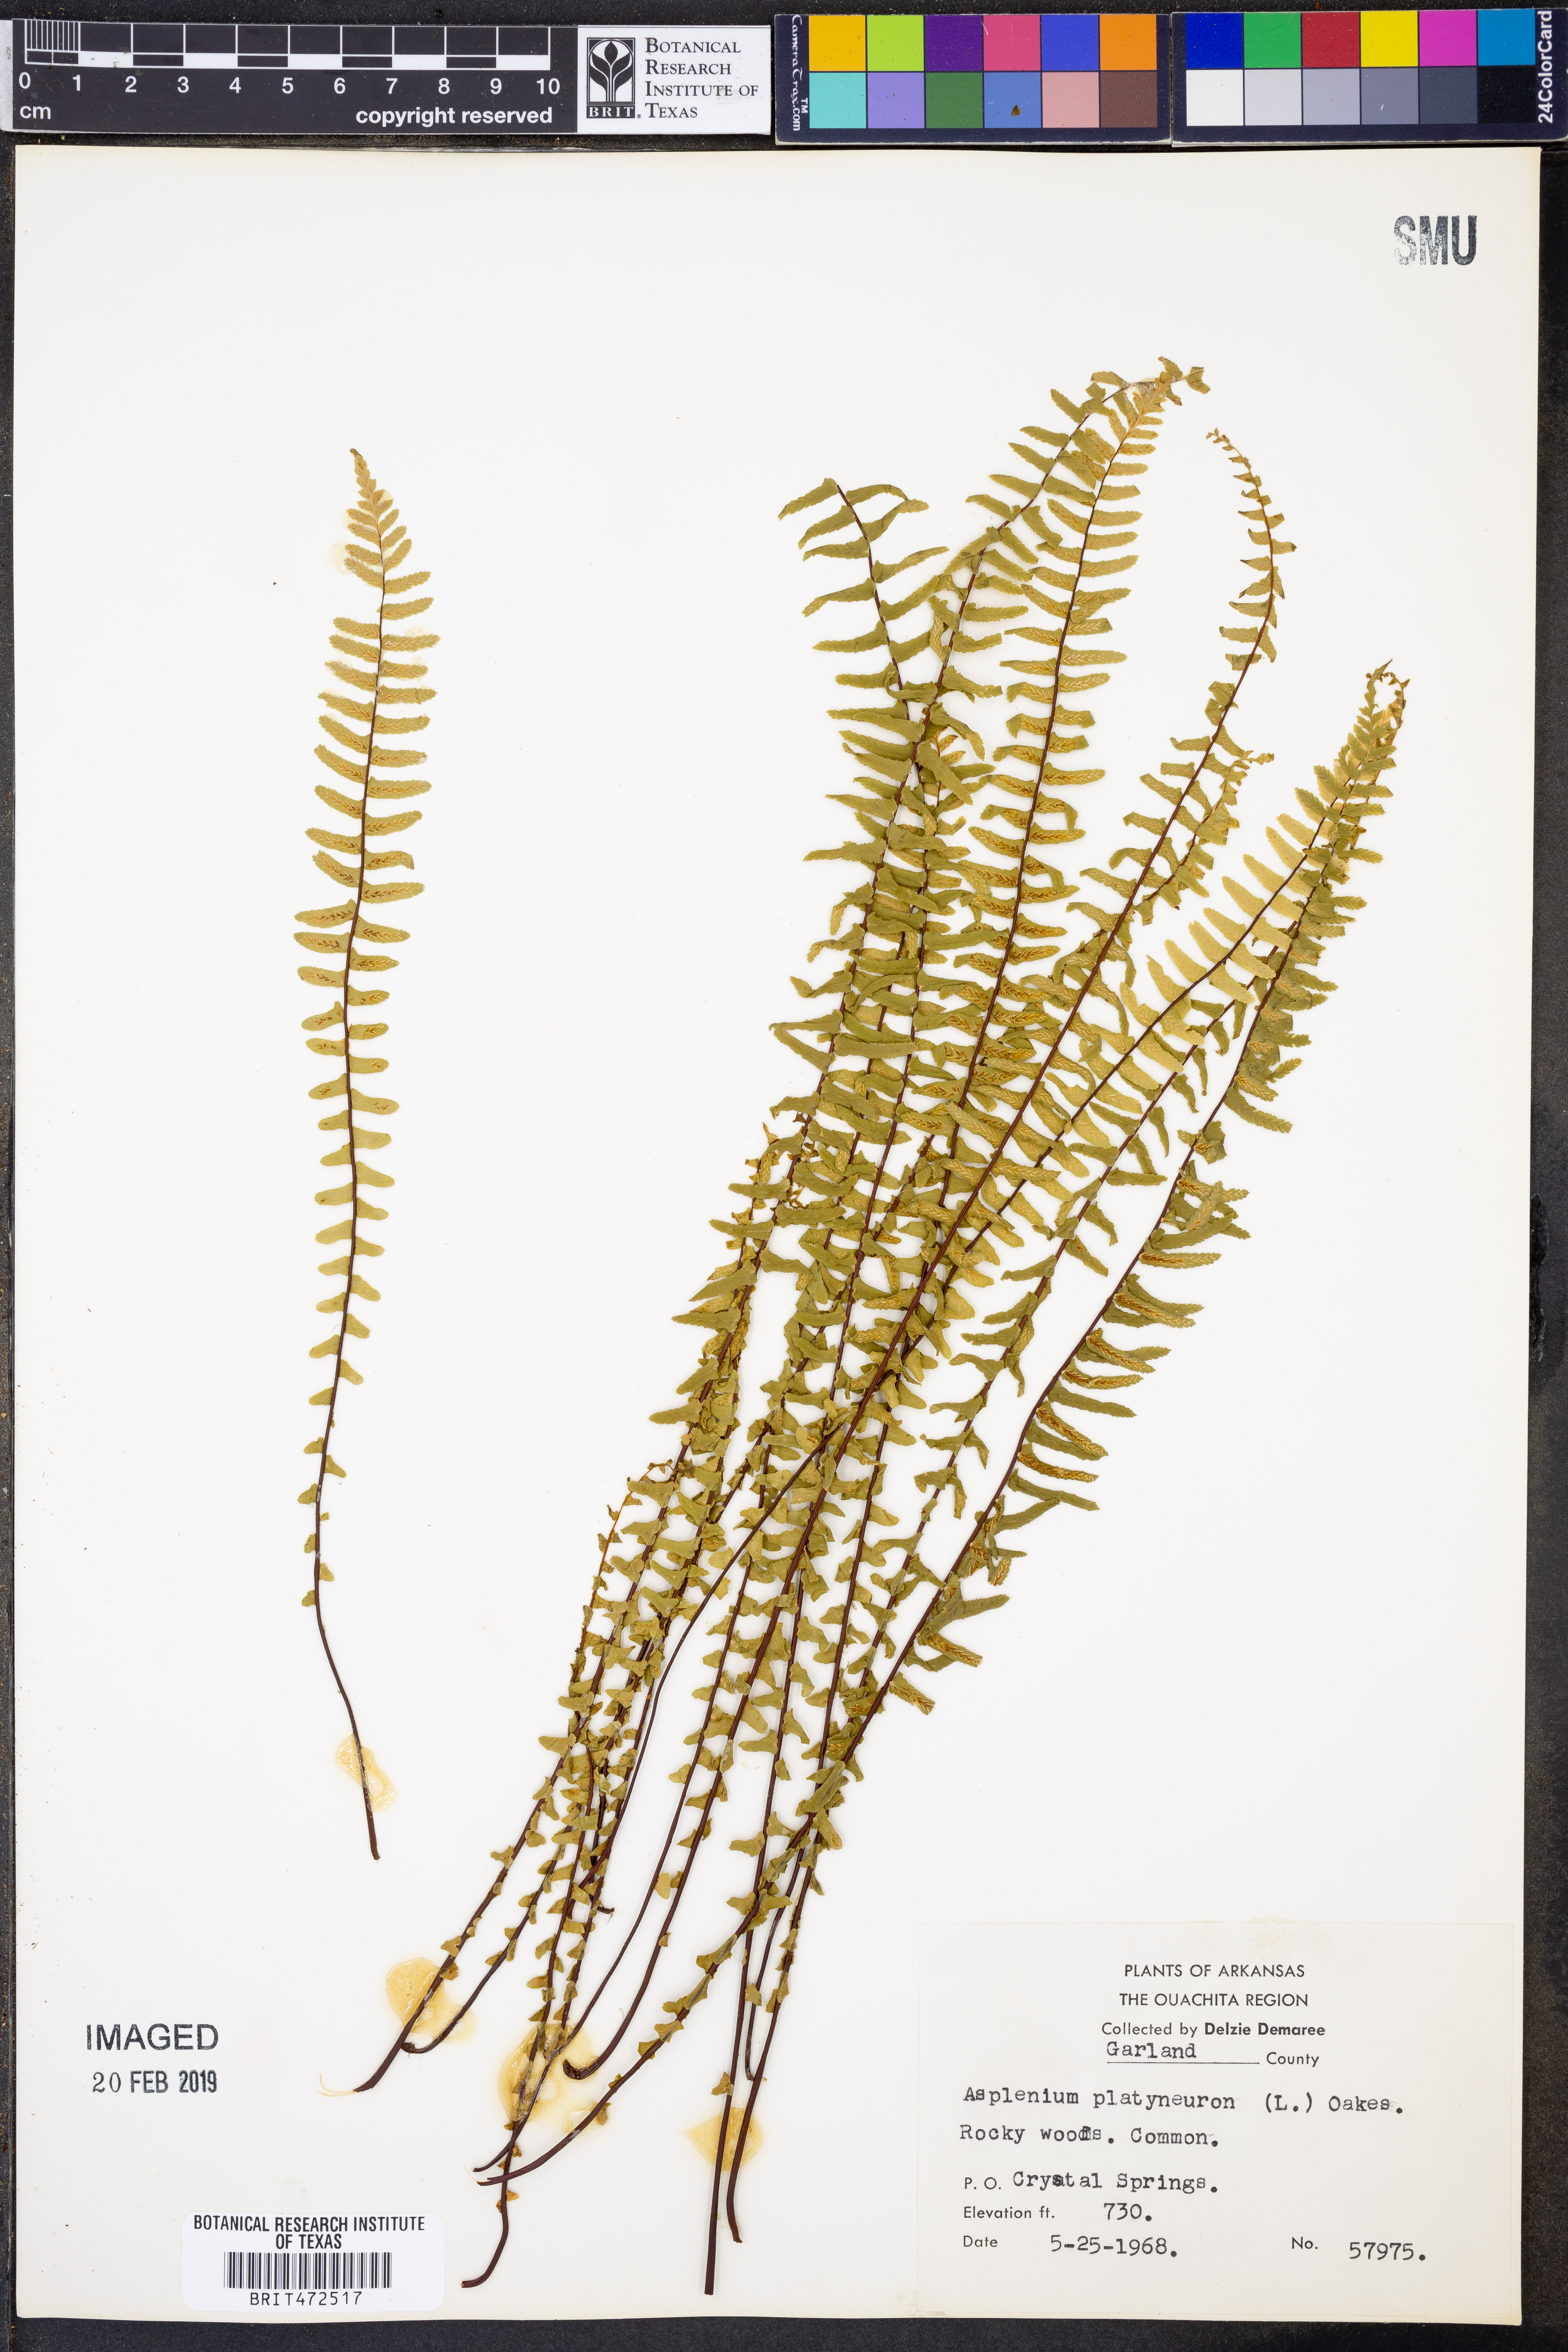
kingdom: Plantae
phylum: Tracheophyta
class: Polypodiopsida
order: Polypodiales
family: Aspleniaceae
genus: Asplenium
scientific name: Asplenium platyneuron
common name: Ebony spleenwort
